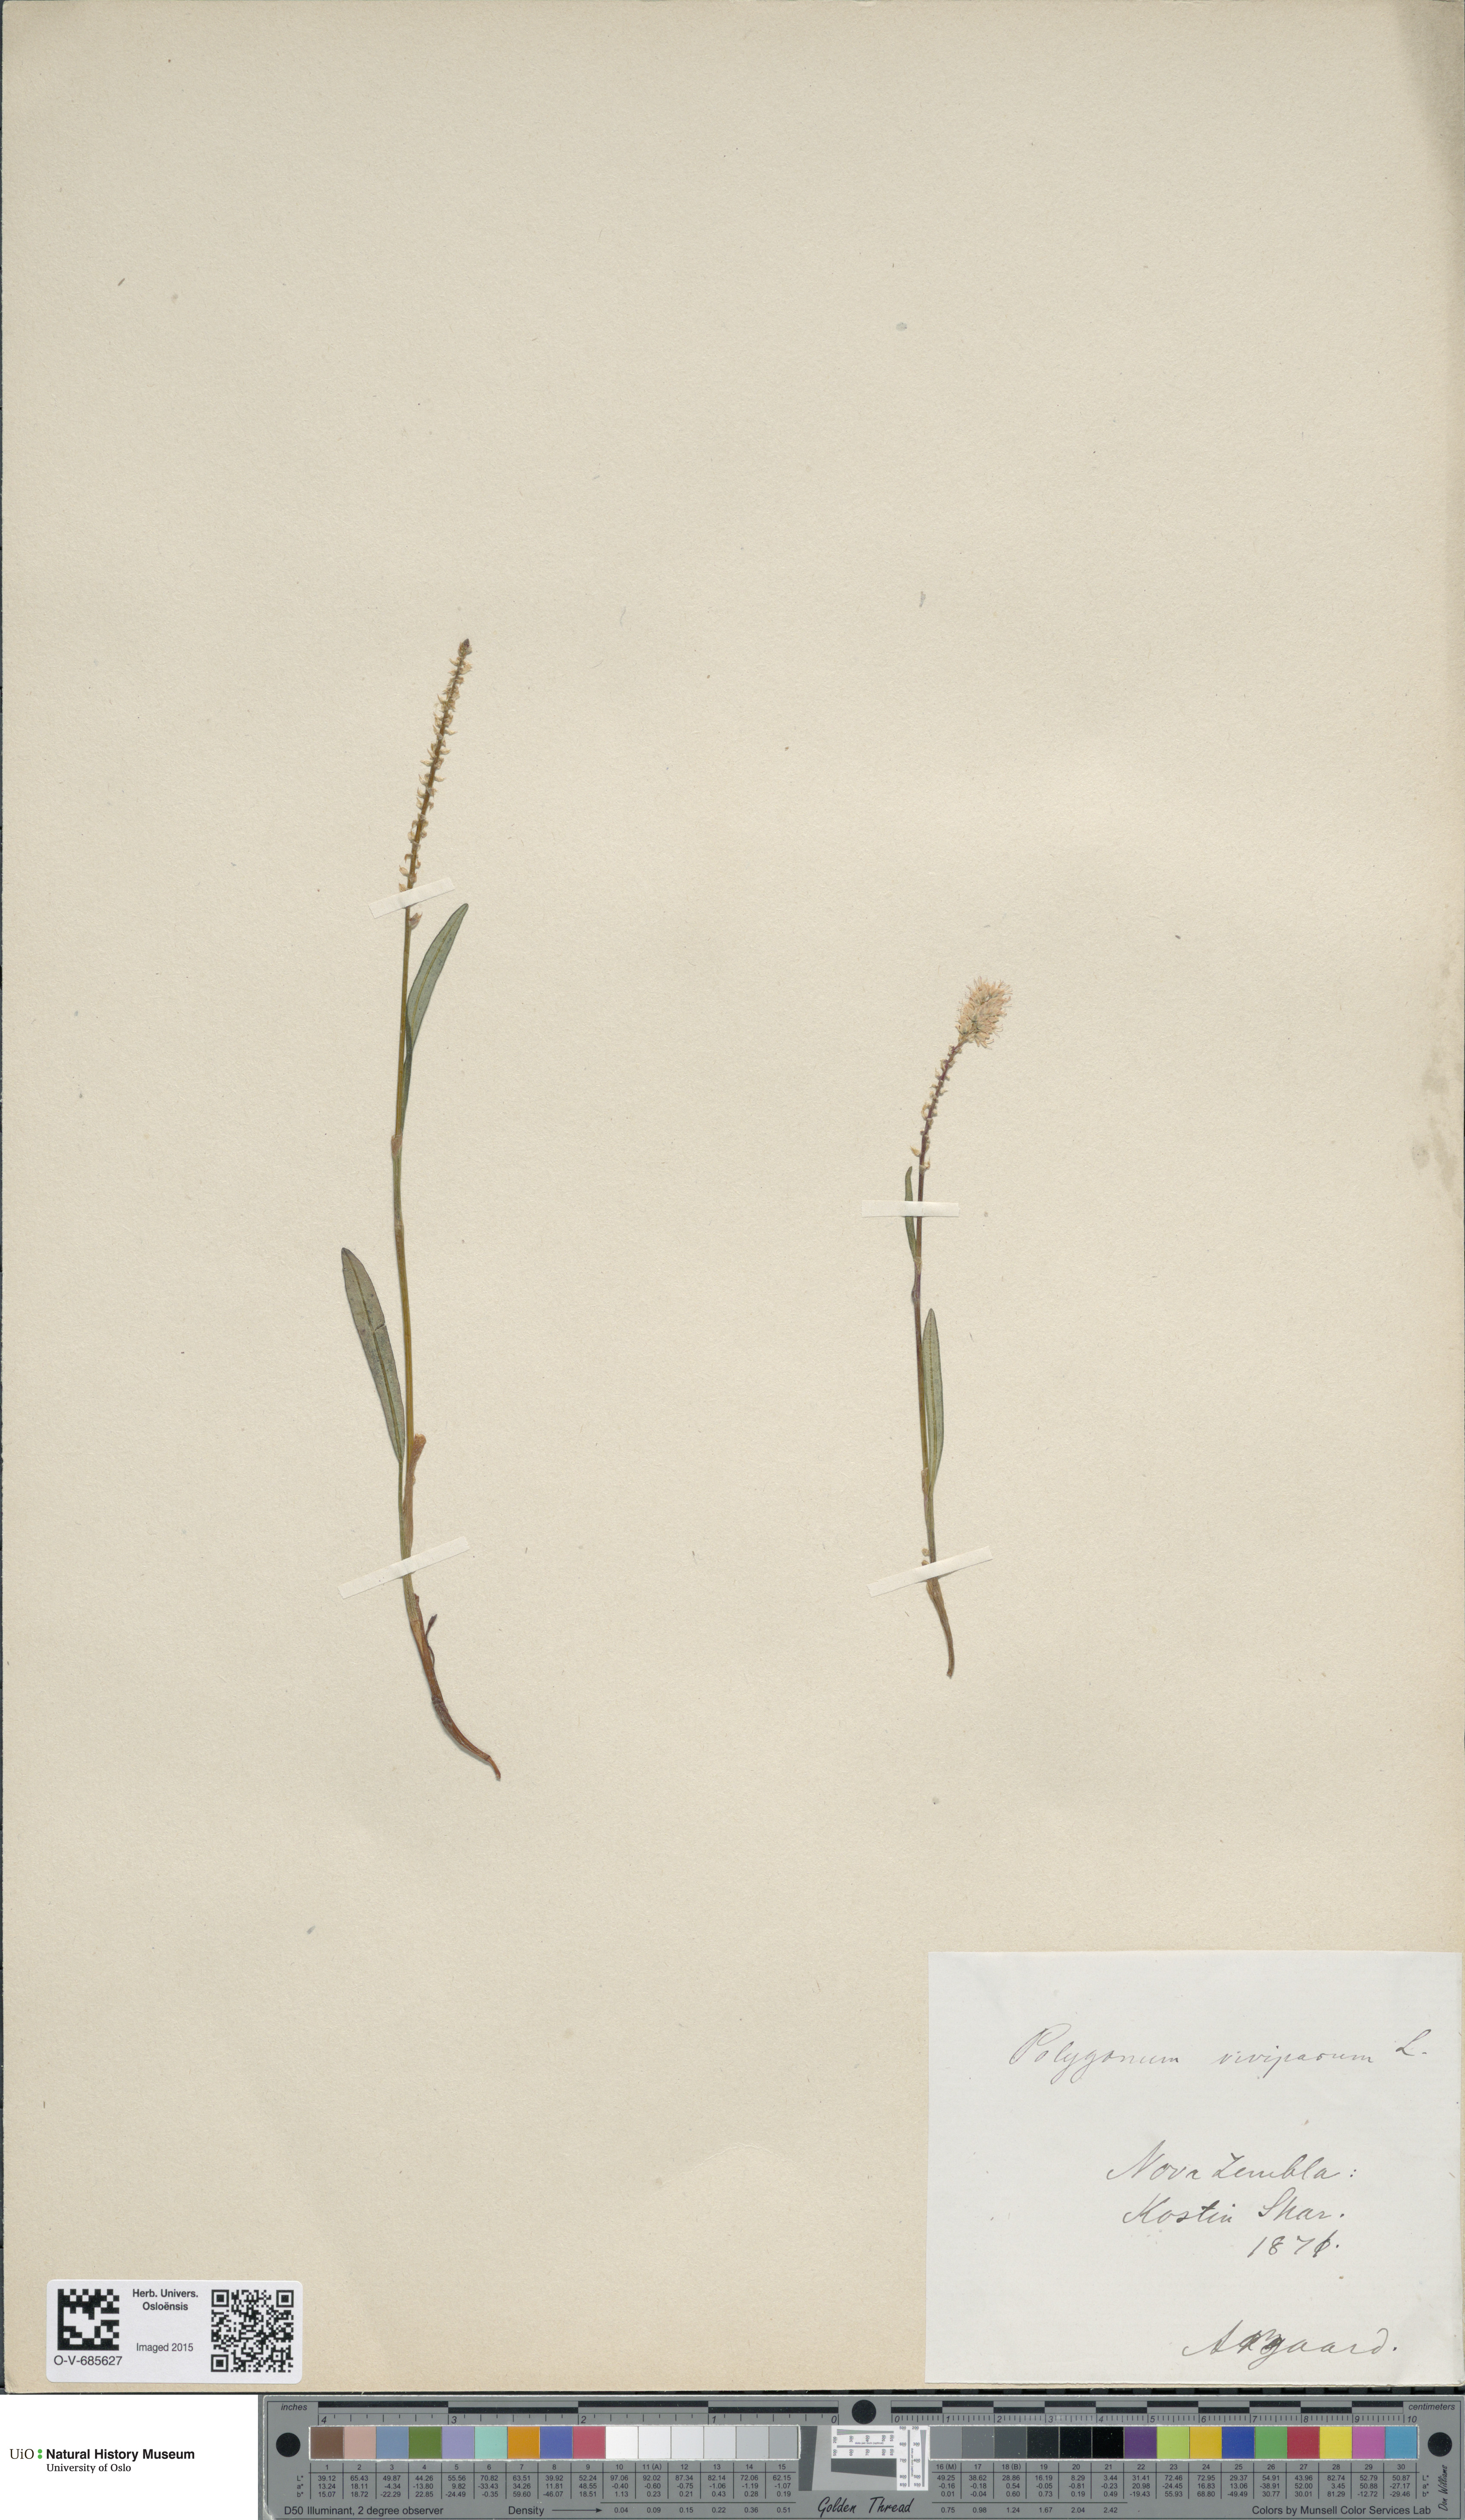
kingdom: Plantae
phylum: Tracheophyta
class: Magnoliopsida
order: Caryophyllales
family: Polygonaceae
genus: Bistorta
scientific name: Bistorta vivipara
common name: Alpine bistort
